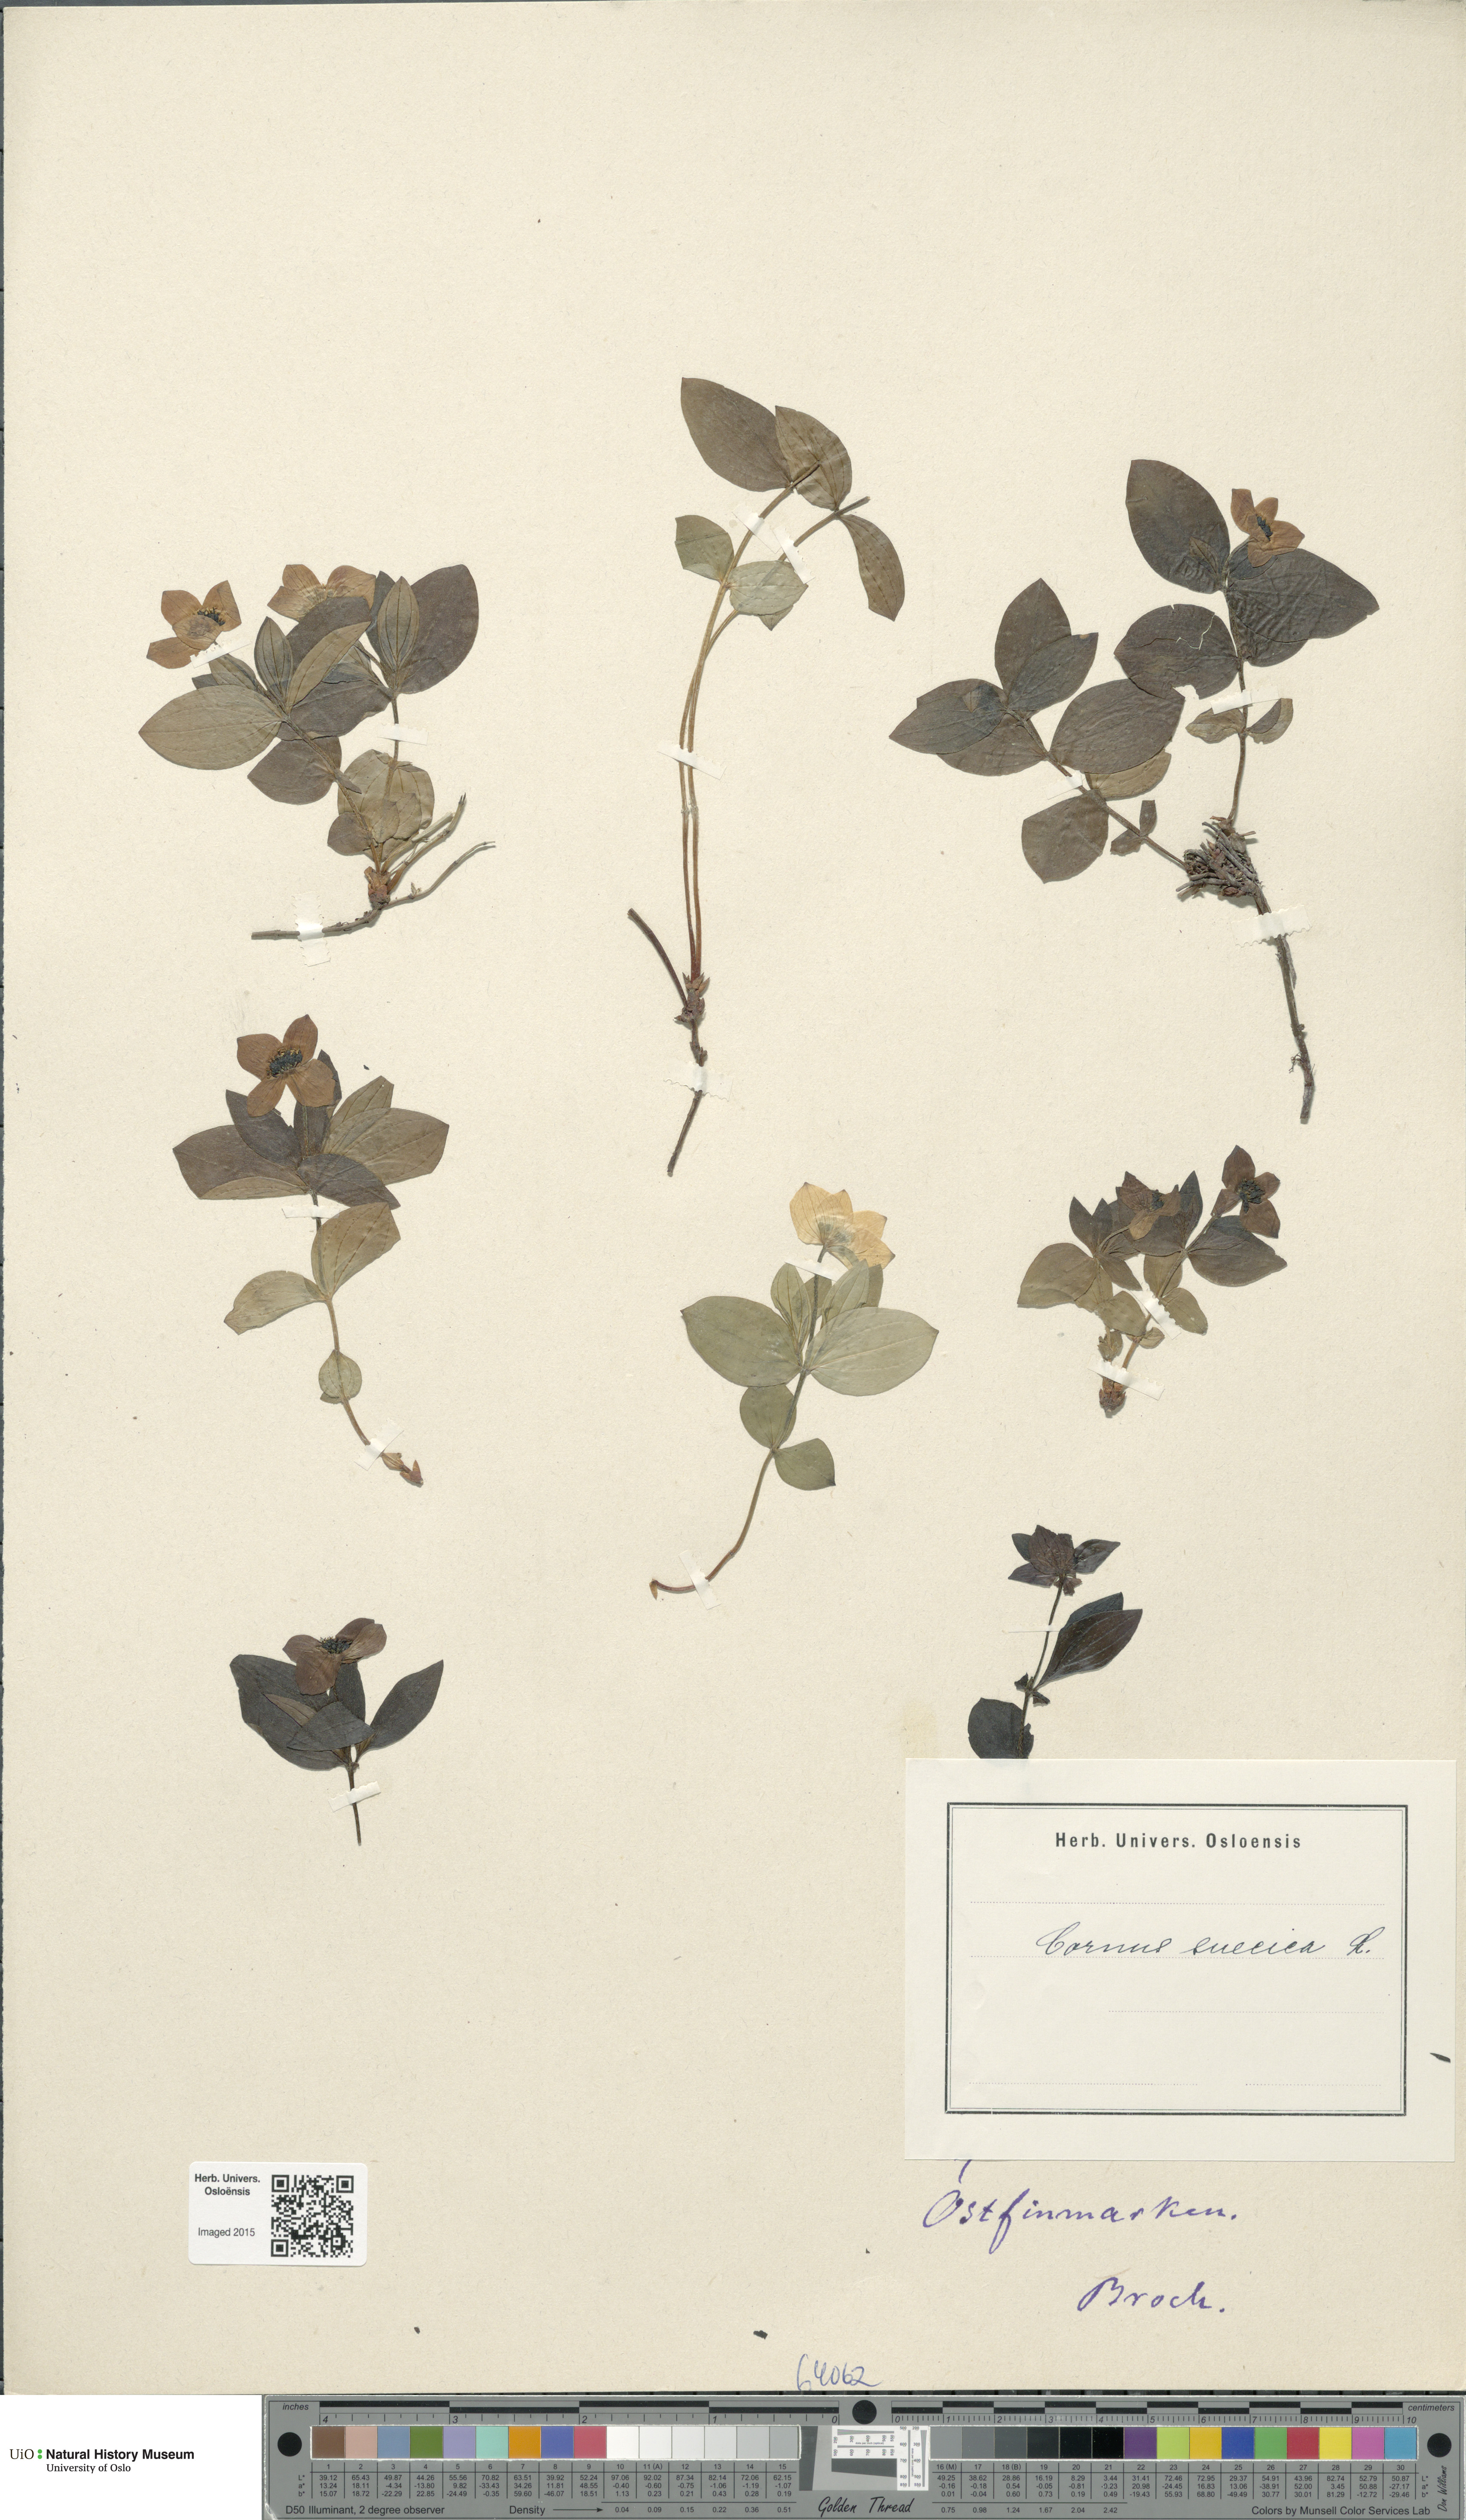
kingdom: Plantae
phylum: Tracheophyta
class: Magnoliopsida
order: Cornales
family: Cornaceae
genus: Cornus
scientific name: Cornus suecica
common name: Dwarf cornel
